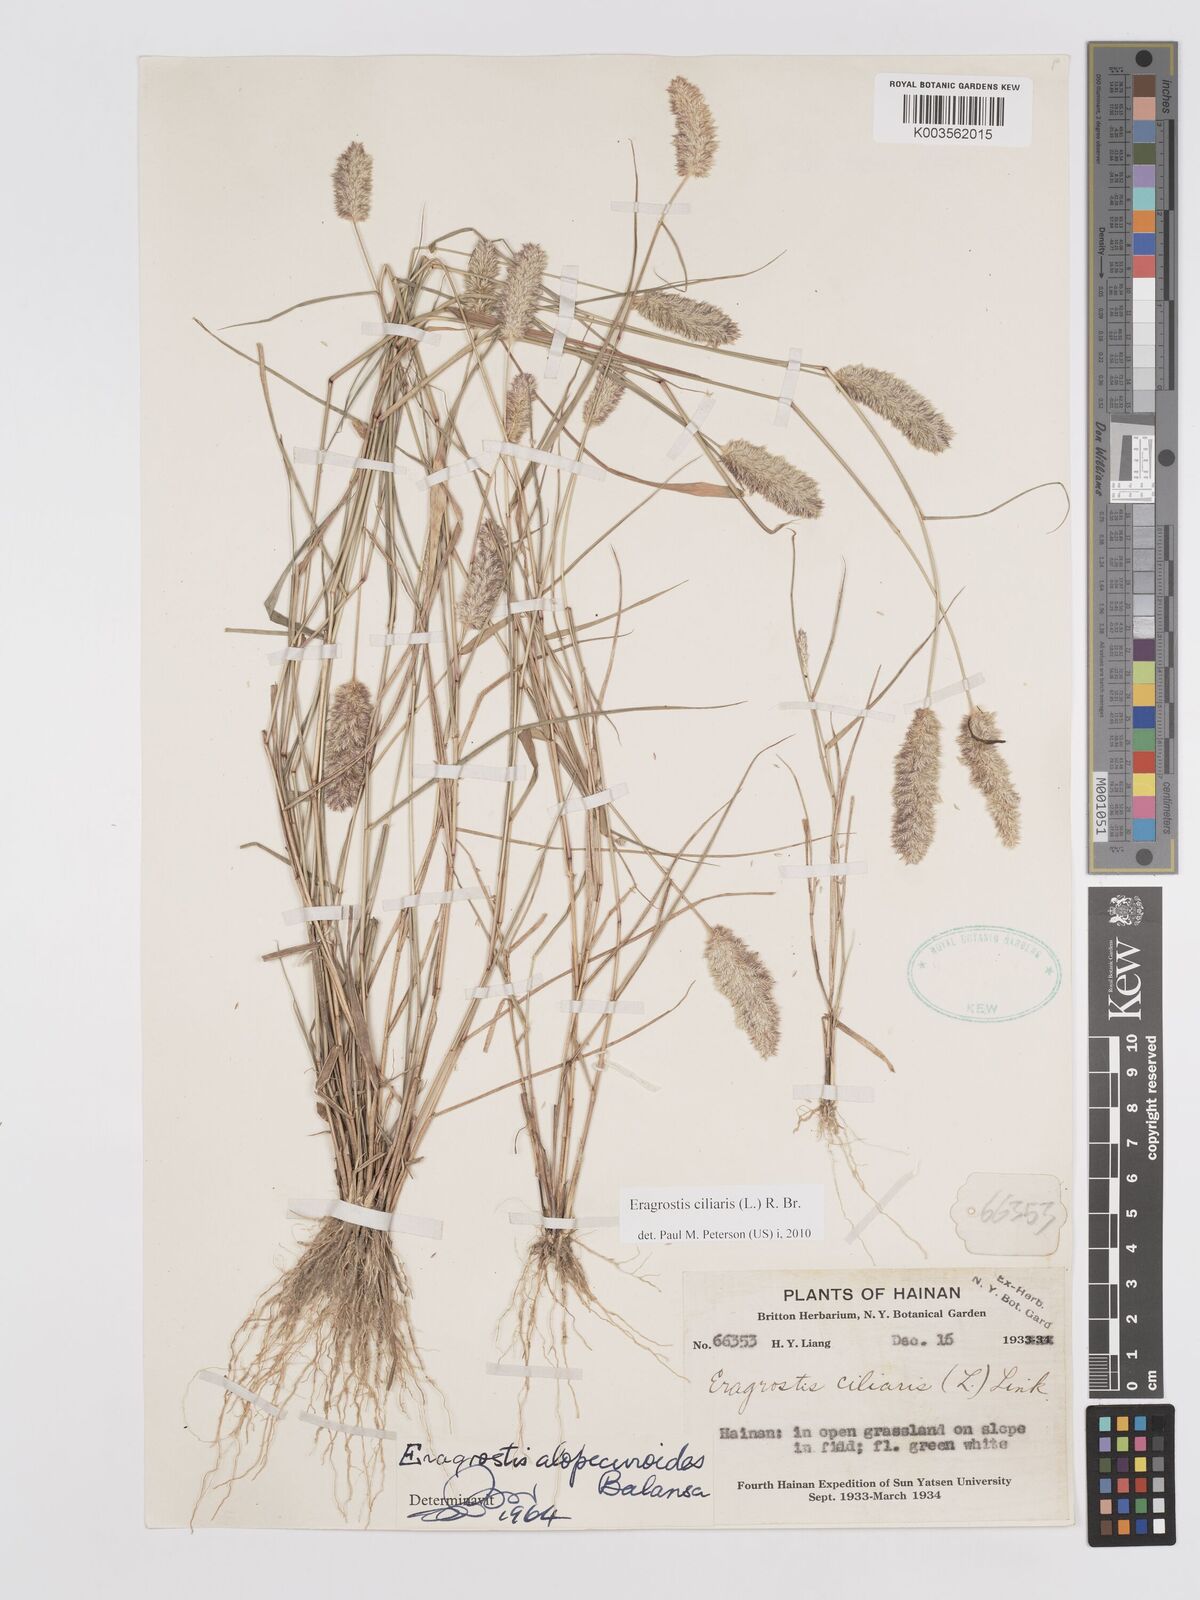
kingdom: Plantae
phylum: Tracheophyta
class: Liliopsida
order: Poales
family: Poaceae
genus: Eragrostis
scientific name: Eragrostis ciliaris
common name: Gophertail lovegrass
